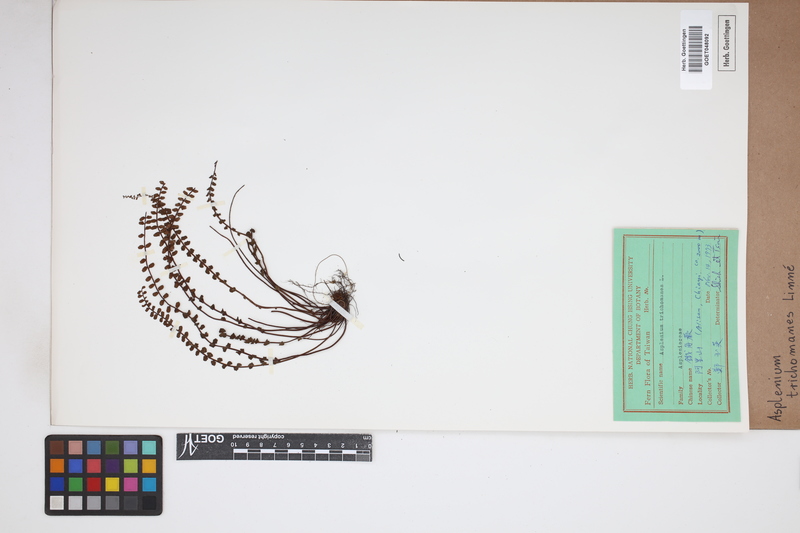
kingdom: Plantae
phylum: Tracheophyta
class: Polypodiopsida
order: Polypodiales
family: Aspleniaceae
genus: Asplenium
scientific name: Asplenium trichomanes
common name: Maidenhair spleenwort
